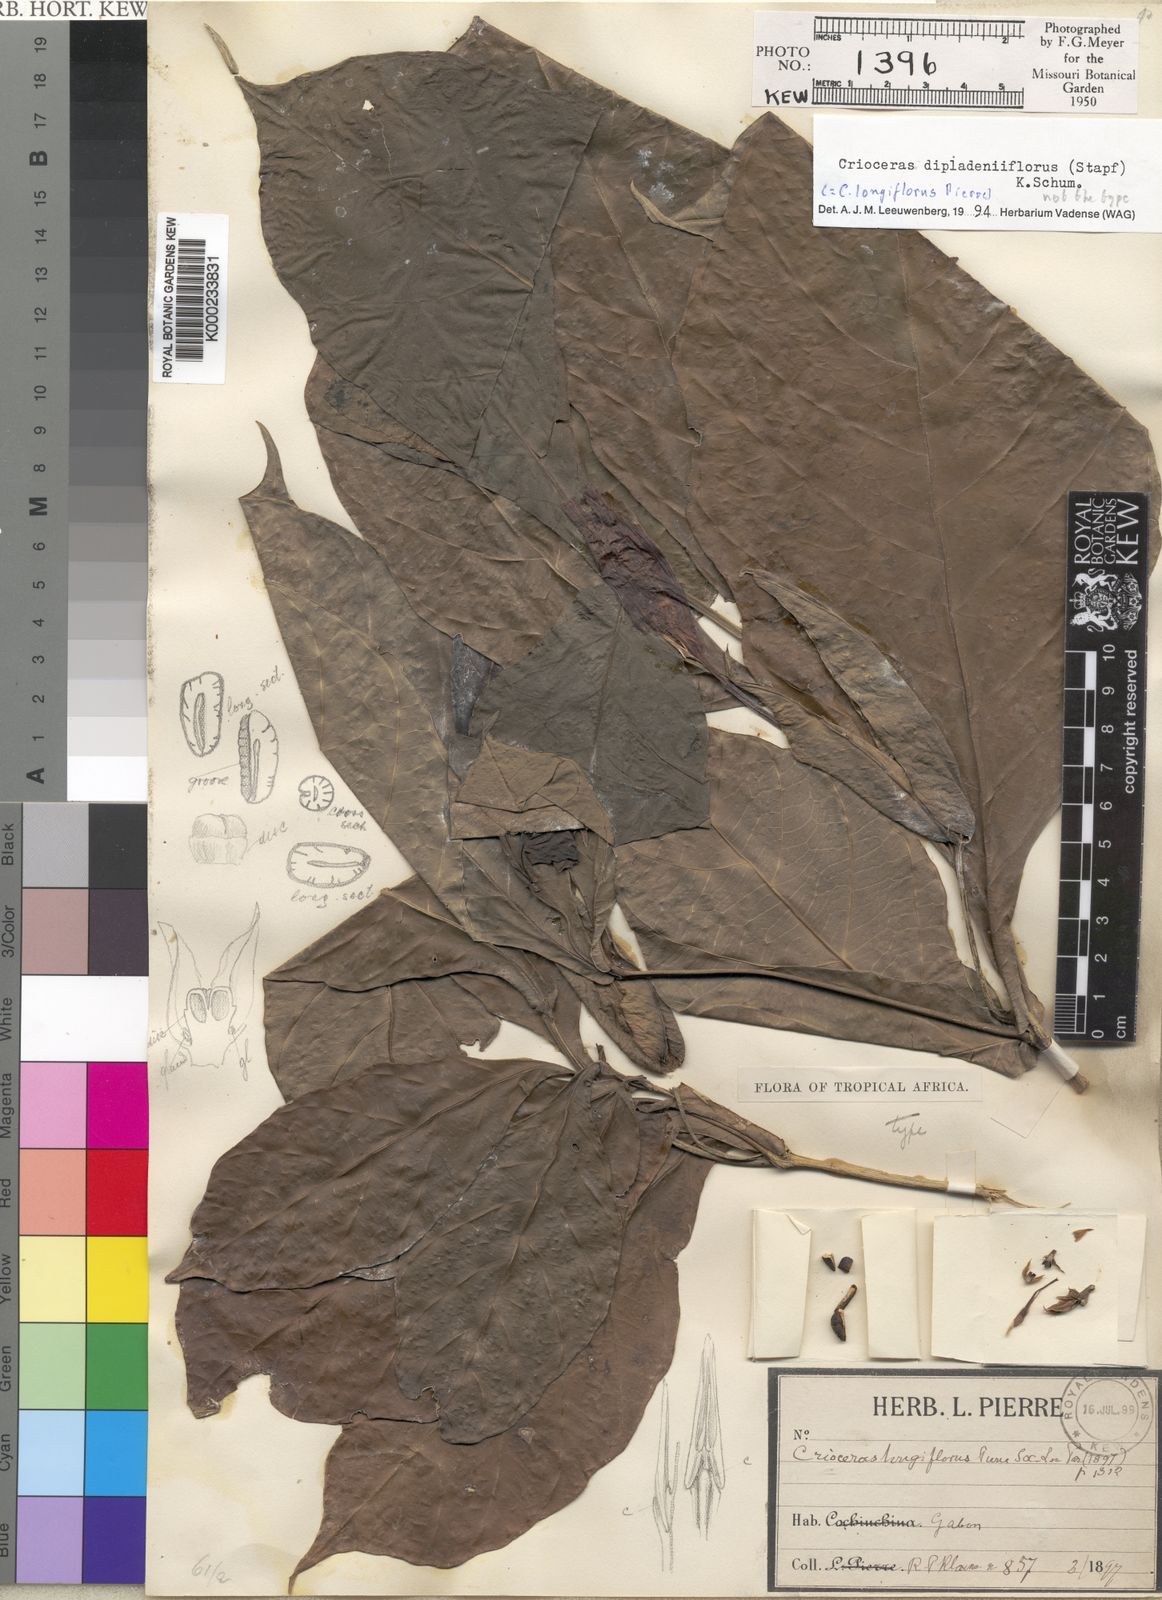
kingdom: Plantae
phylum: Tracheophyta
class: Magnoliopsida
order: Gentianales
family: Apocynaceae
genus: Crioceras
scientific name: Crioceras dipladeniiflorus
